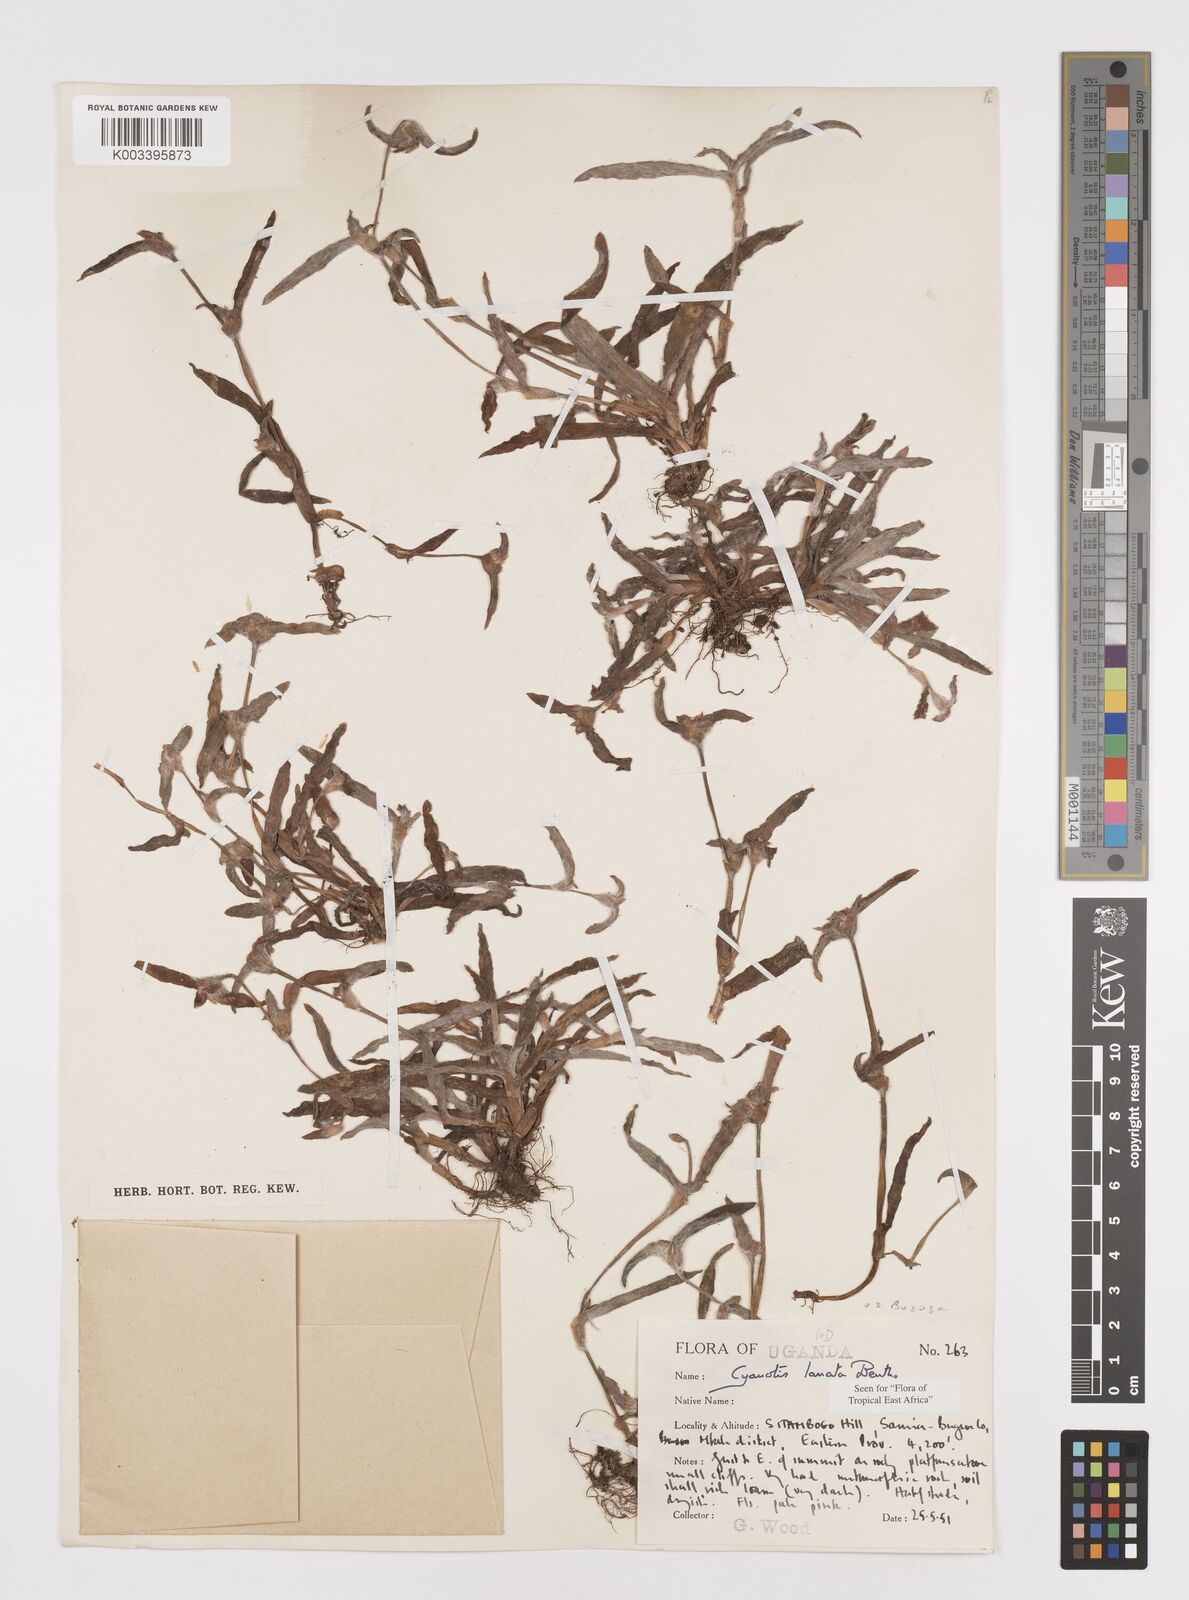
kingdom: Plantae
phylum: Tracheophyta
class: Liliopsida
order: Commelinales
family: Commelinaceae
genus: Cyanotis
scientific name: Cyanotis lanata
